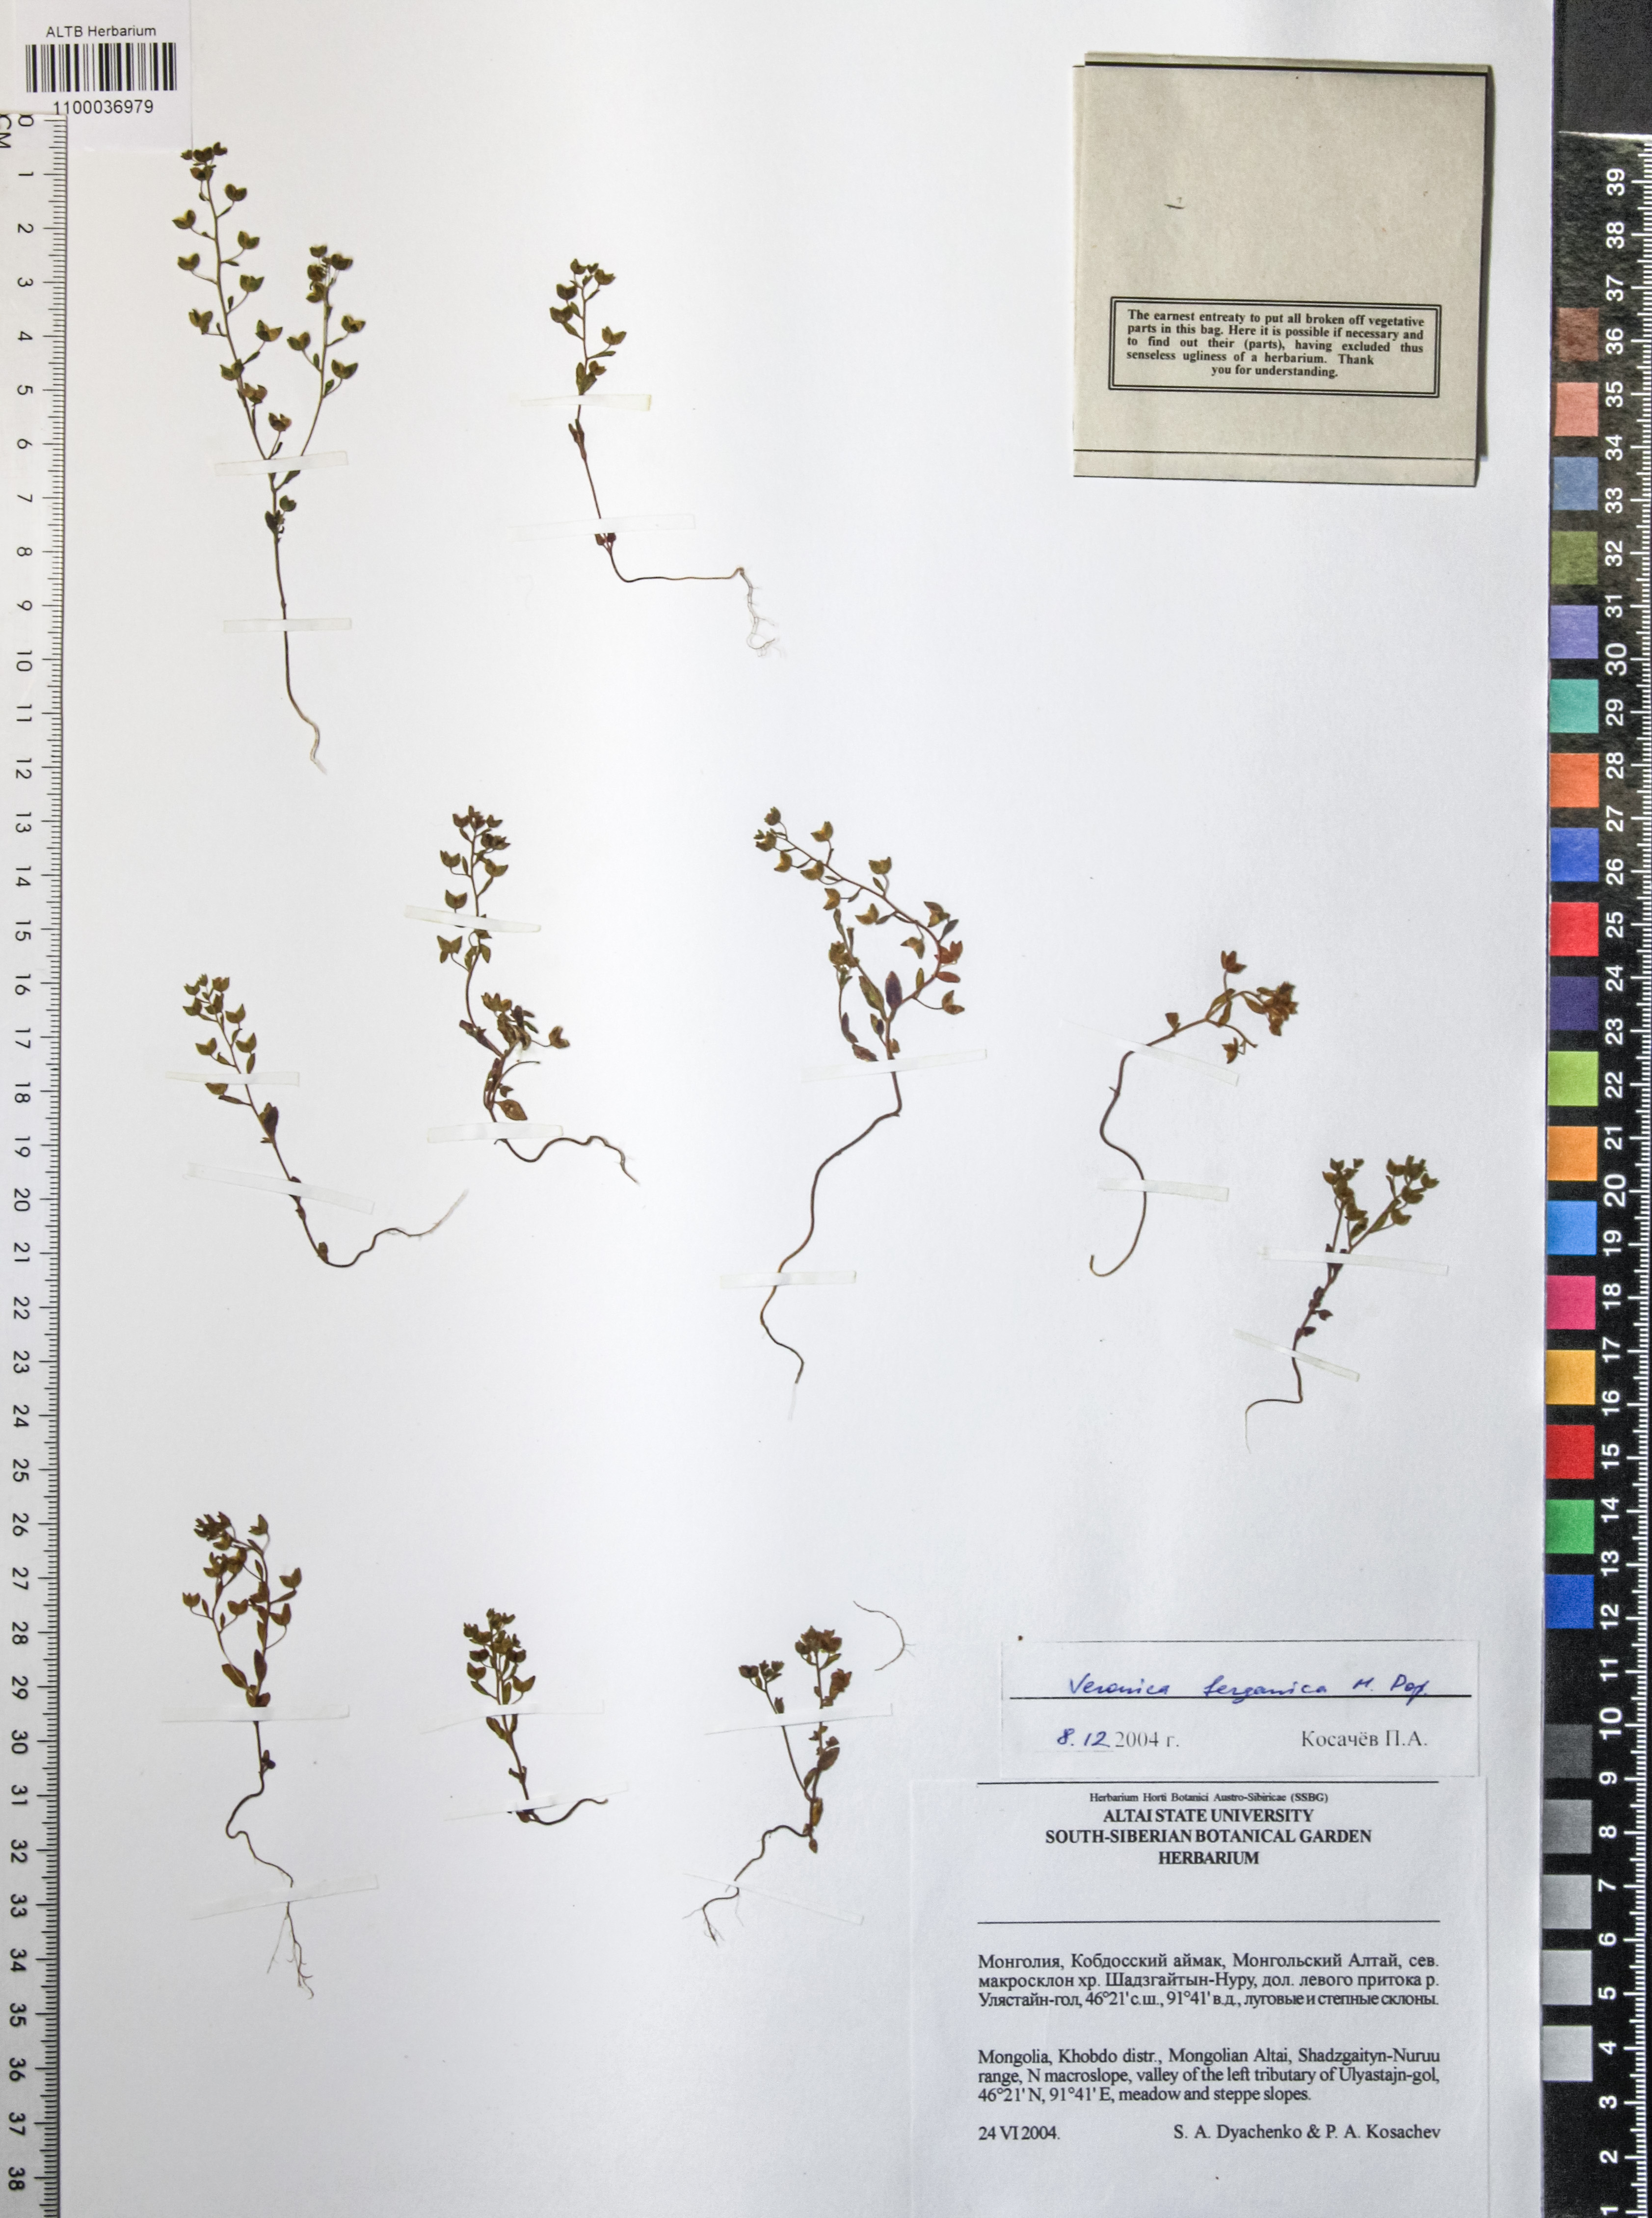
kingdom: Plantae
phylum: Tracheophyta
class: Magnoliopsida
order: Lamiales
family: Plantaginaceae
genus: Veronica
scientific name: Veronica ferganica
